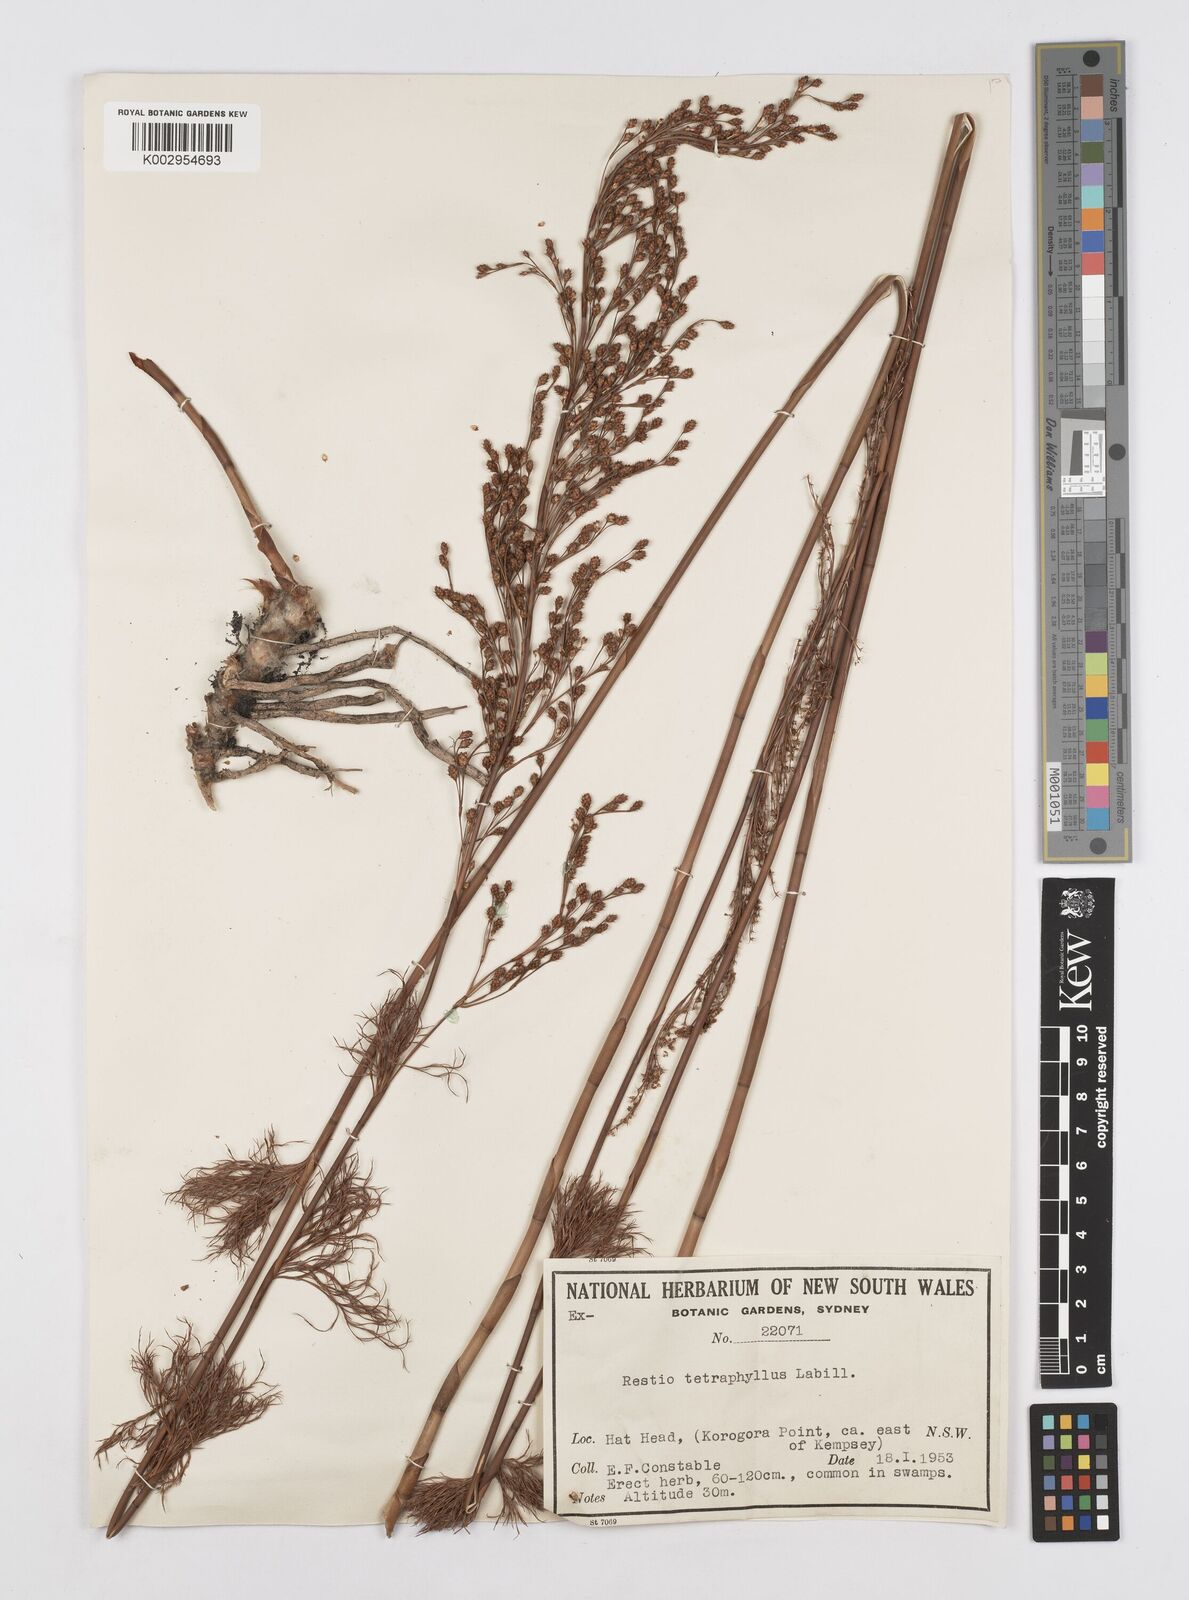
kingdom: Plantae
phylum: Tracheophyta
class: Liliopsida
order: Poales
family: Restionaceae
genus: Baloskion
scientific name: Baloskion tetraphyllum
